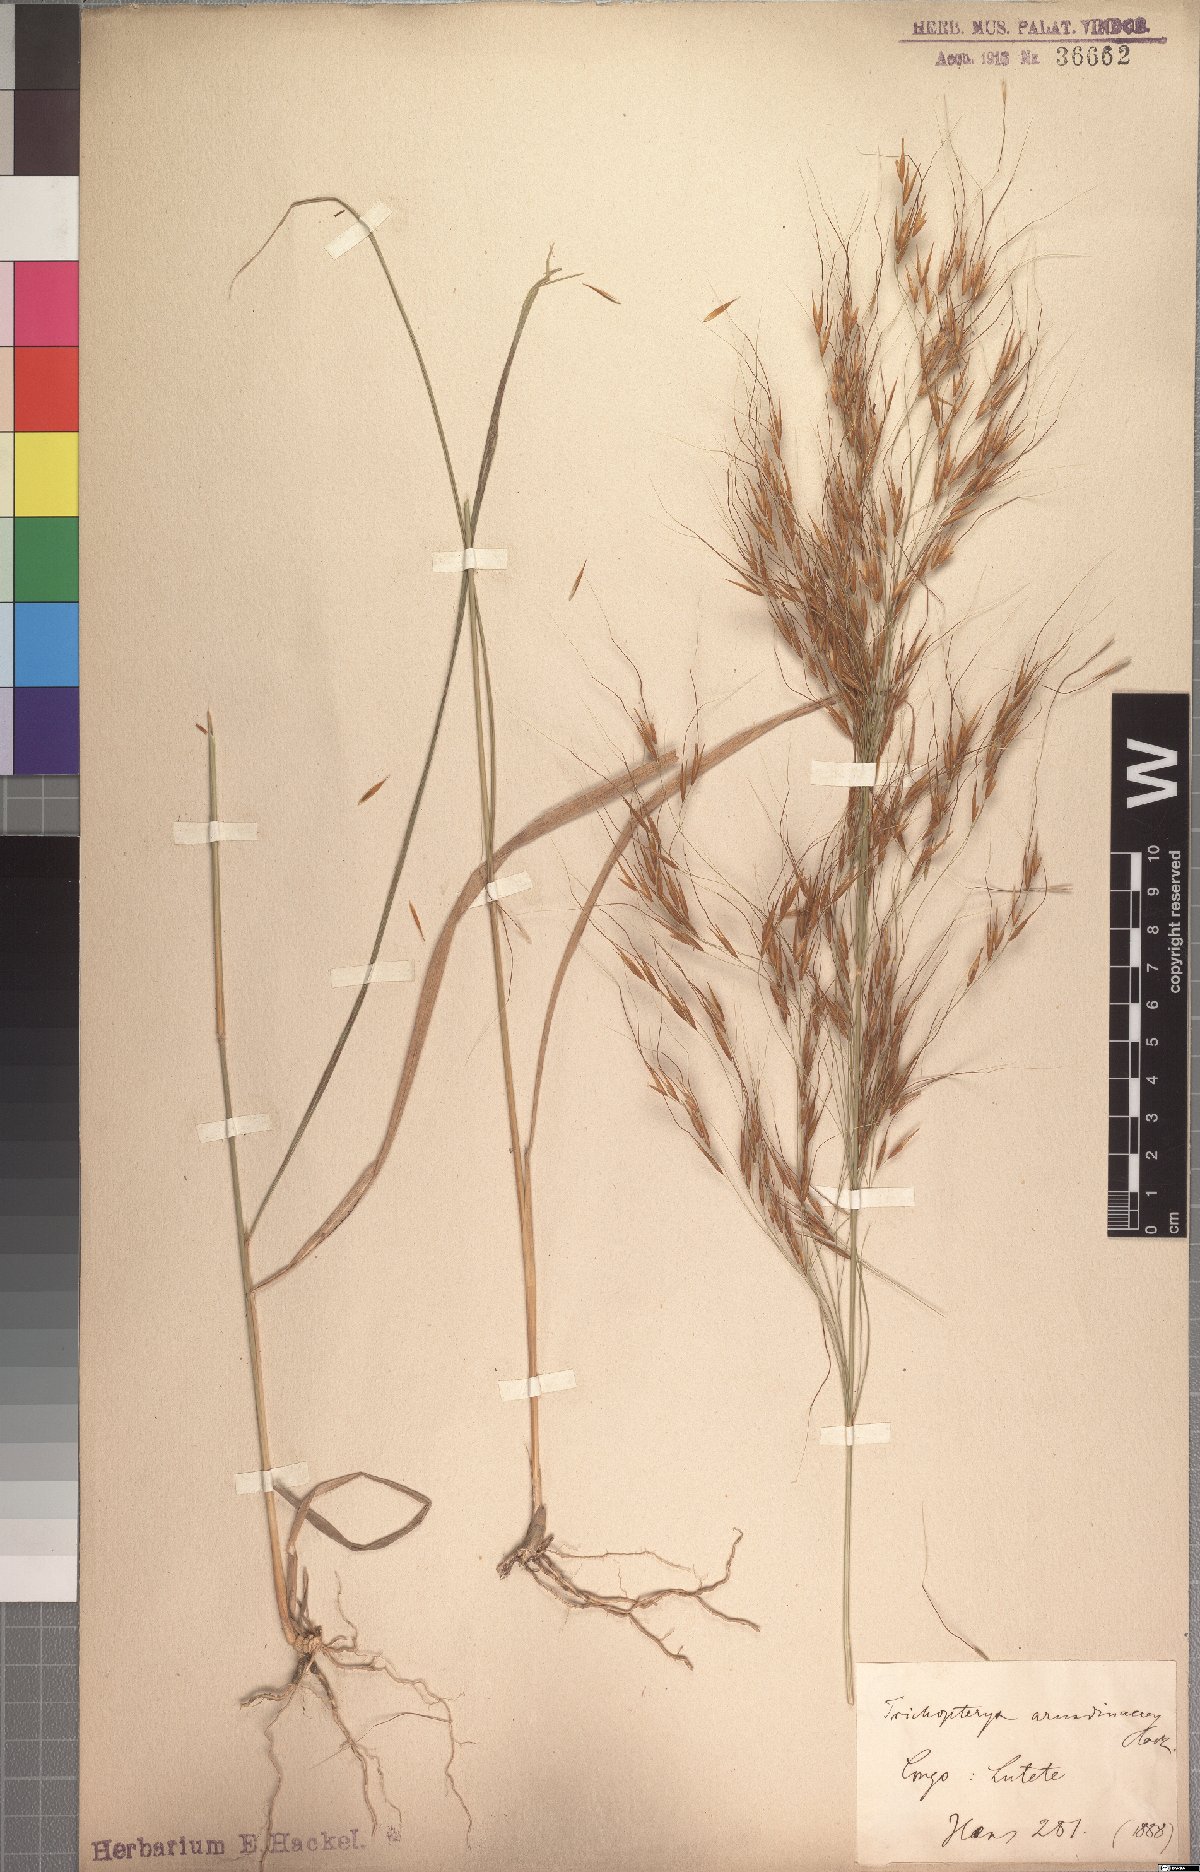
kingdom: Plantae
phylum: Tracheophyta
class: Liliopsida
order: Poales
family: Poaceae
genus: Loudetia
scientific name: Loudetia arundinacea
